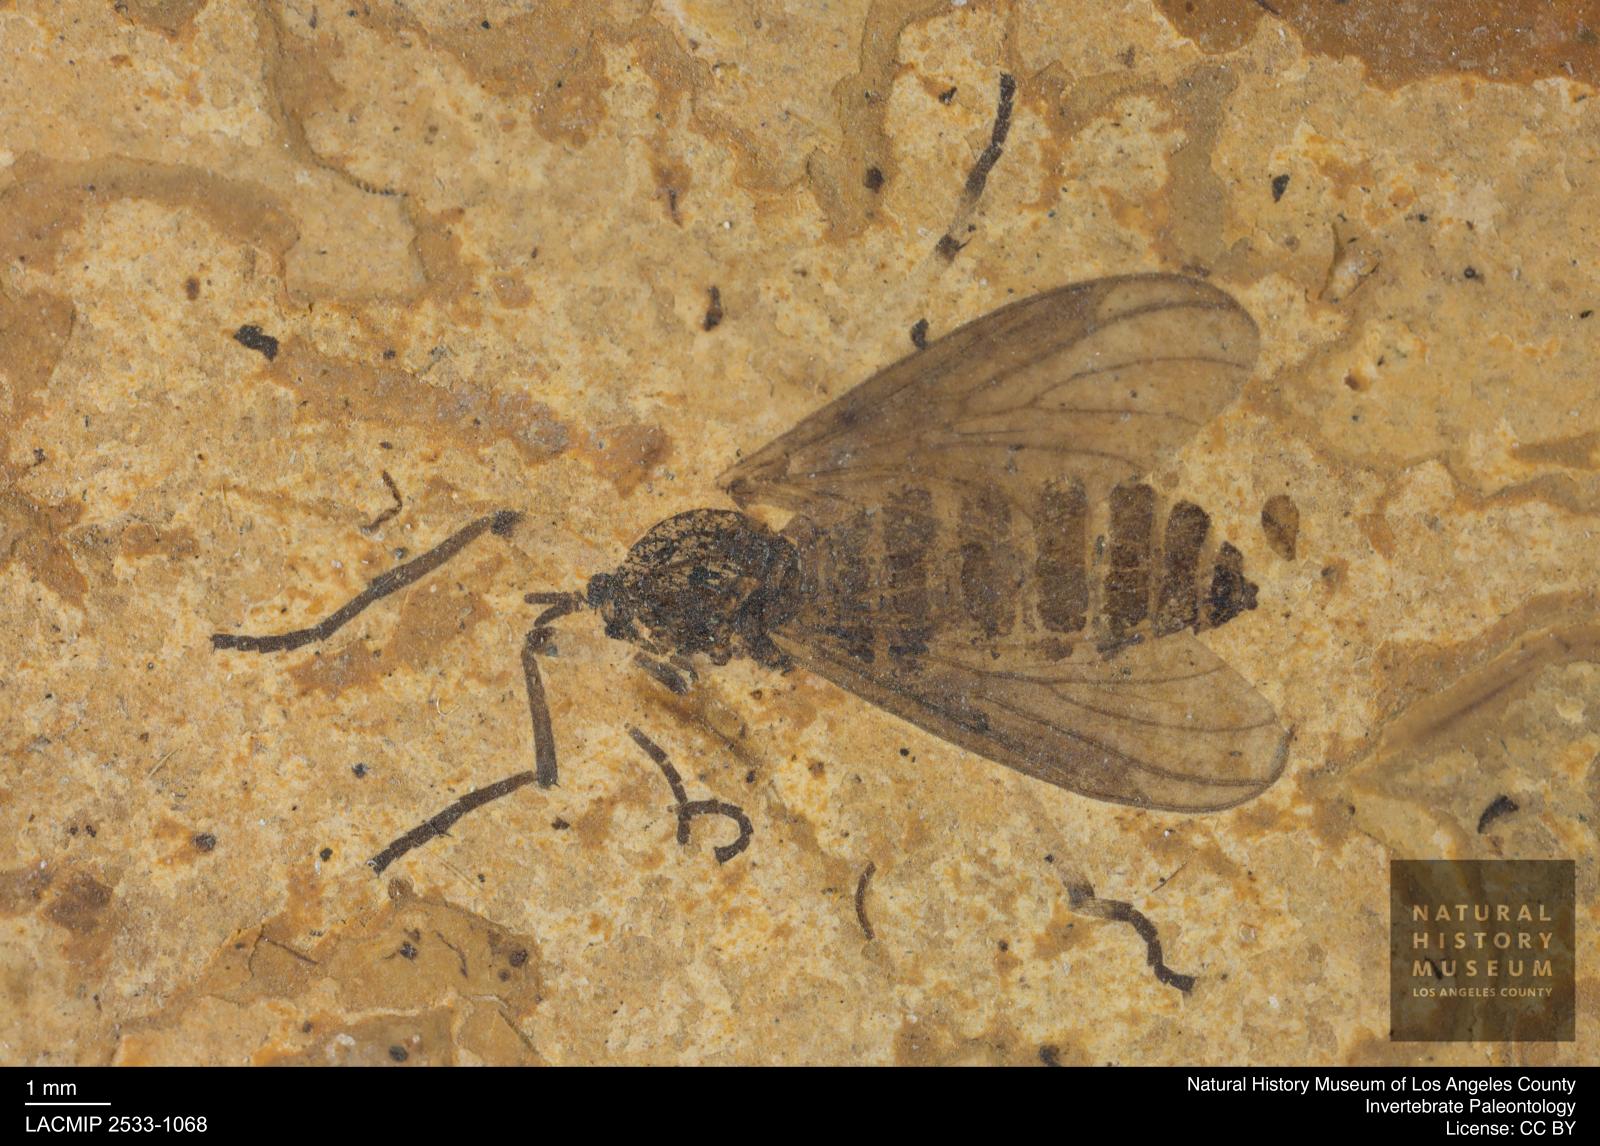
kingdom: Animalia
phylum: Arthropoda
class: Insecta
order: Diptera
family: Bibionidae
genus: Plecia
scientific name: Plecia pinguis
